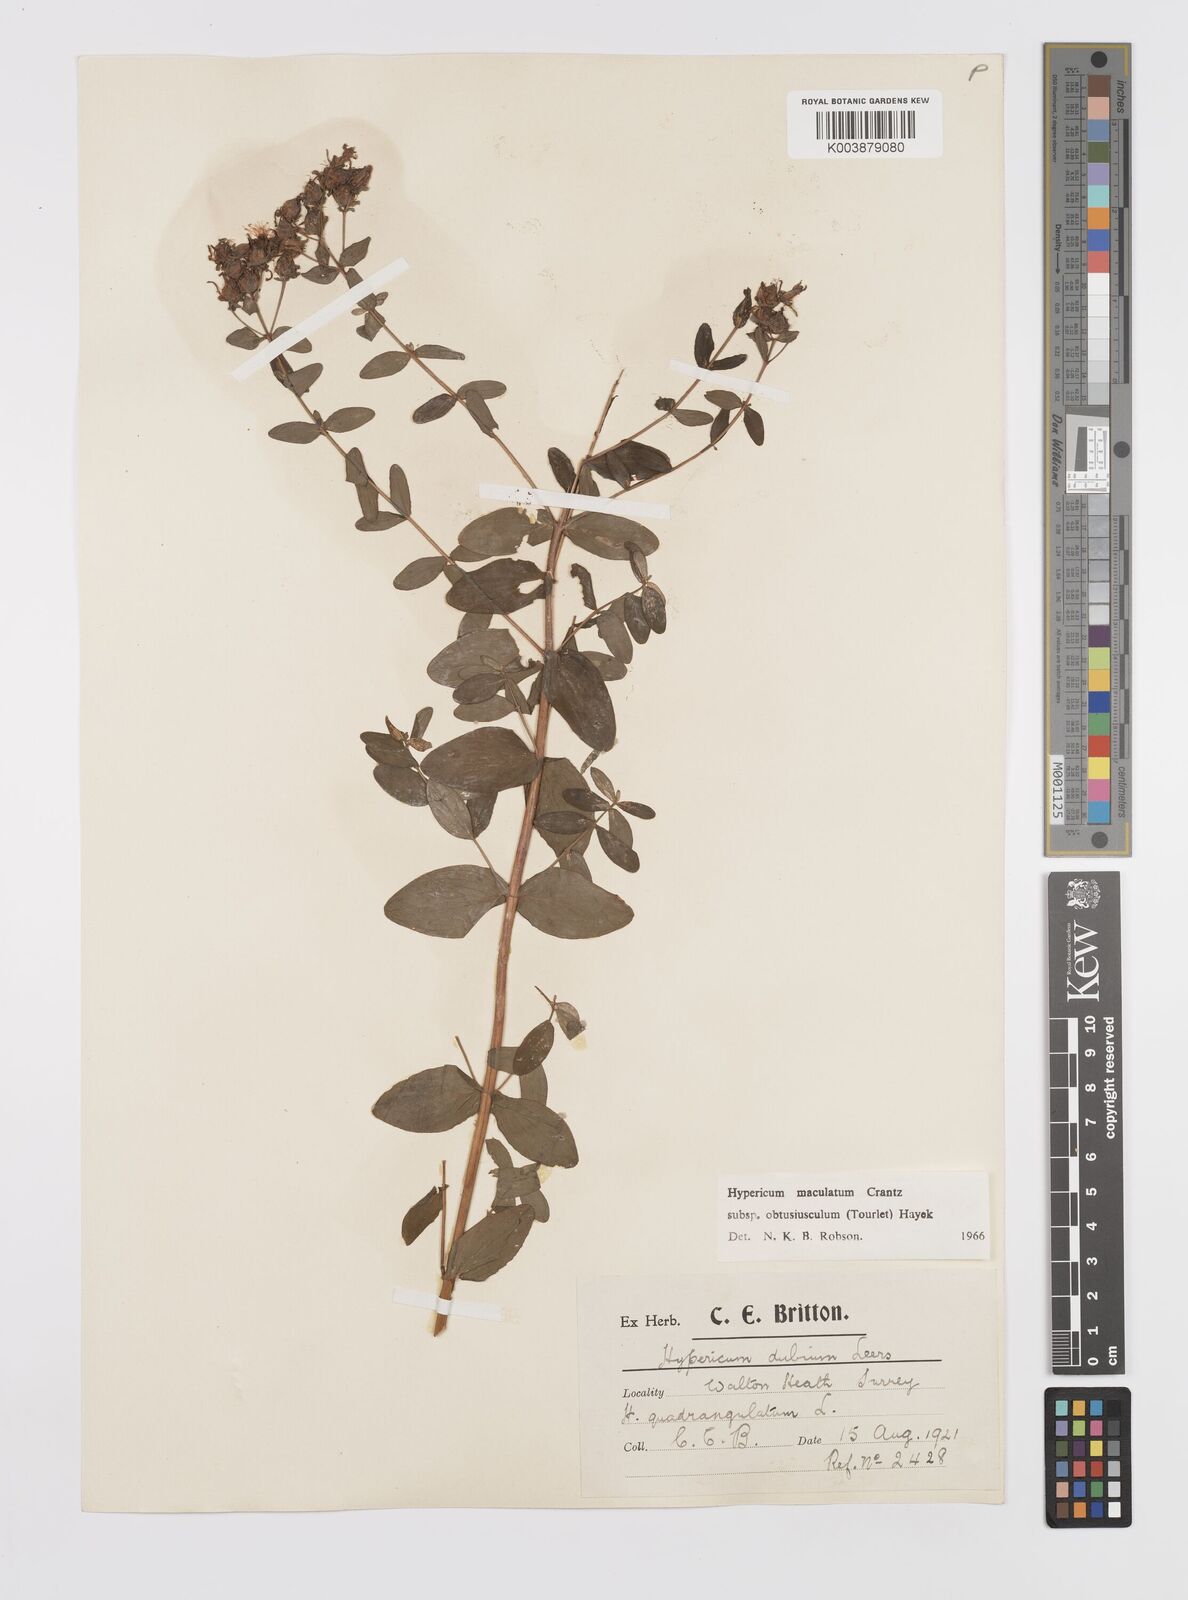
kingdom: Plantae
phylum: Tracheophyta
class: Magnoliopsida
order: Malpighiales
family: Hypericaceae
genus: Hypericum
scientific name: Hypericum dubium
